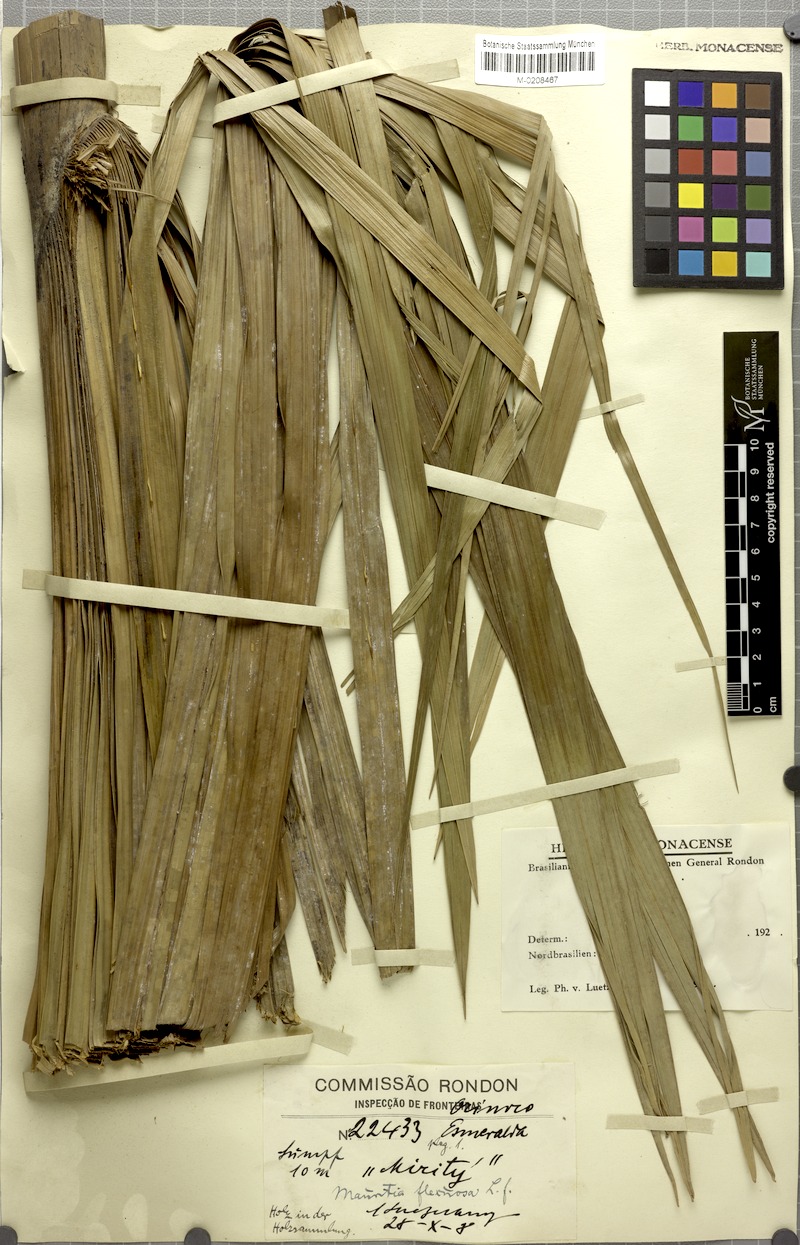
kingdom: Plantae
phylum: Tracheophyta
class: Liliopsida
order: Arecales
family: Arecaceae
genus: Mauritia
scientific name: Mauritia flexuosa
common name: Tree-of-life
